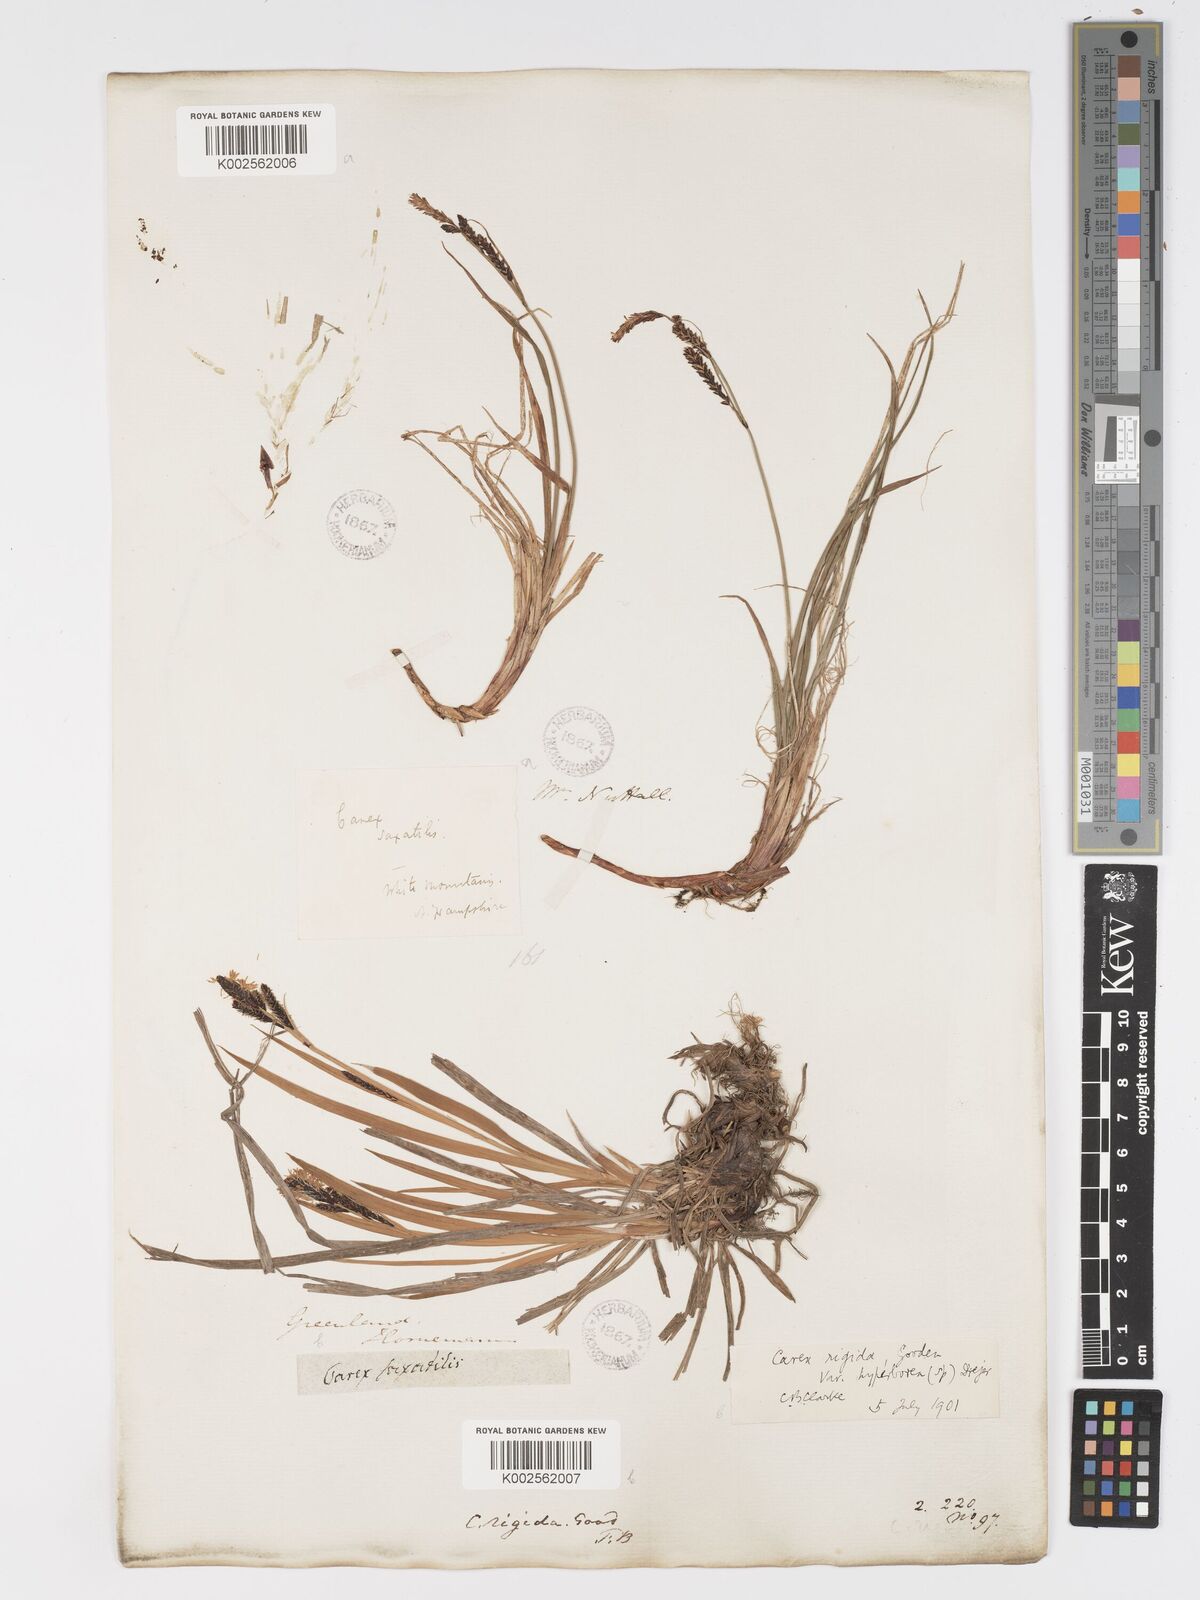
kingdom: Plantae
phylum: Tracheophyta
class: Liliopsida
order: Poales
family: Cyperaceae
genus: Carex
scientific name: Carex bigelowii
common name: Stiff sedge
